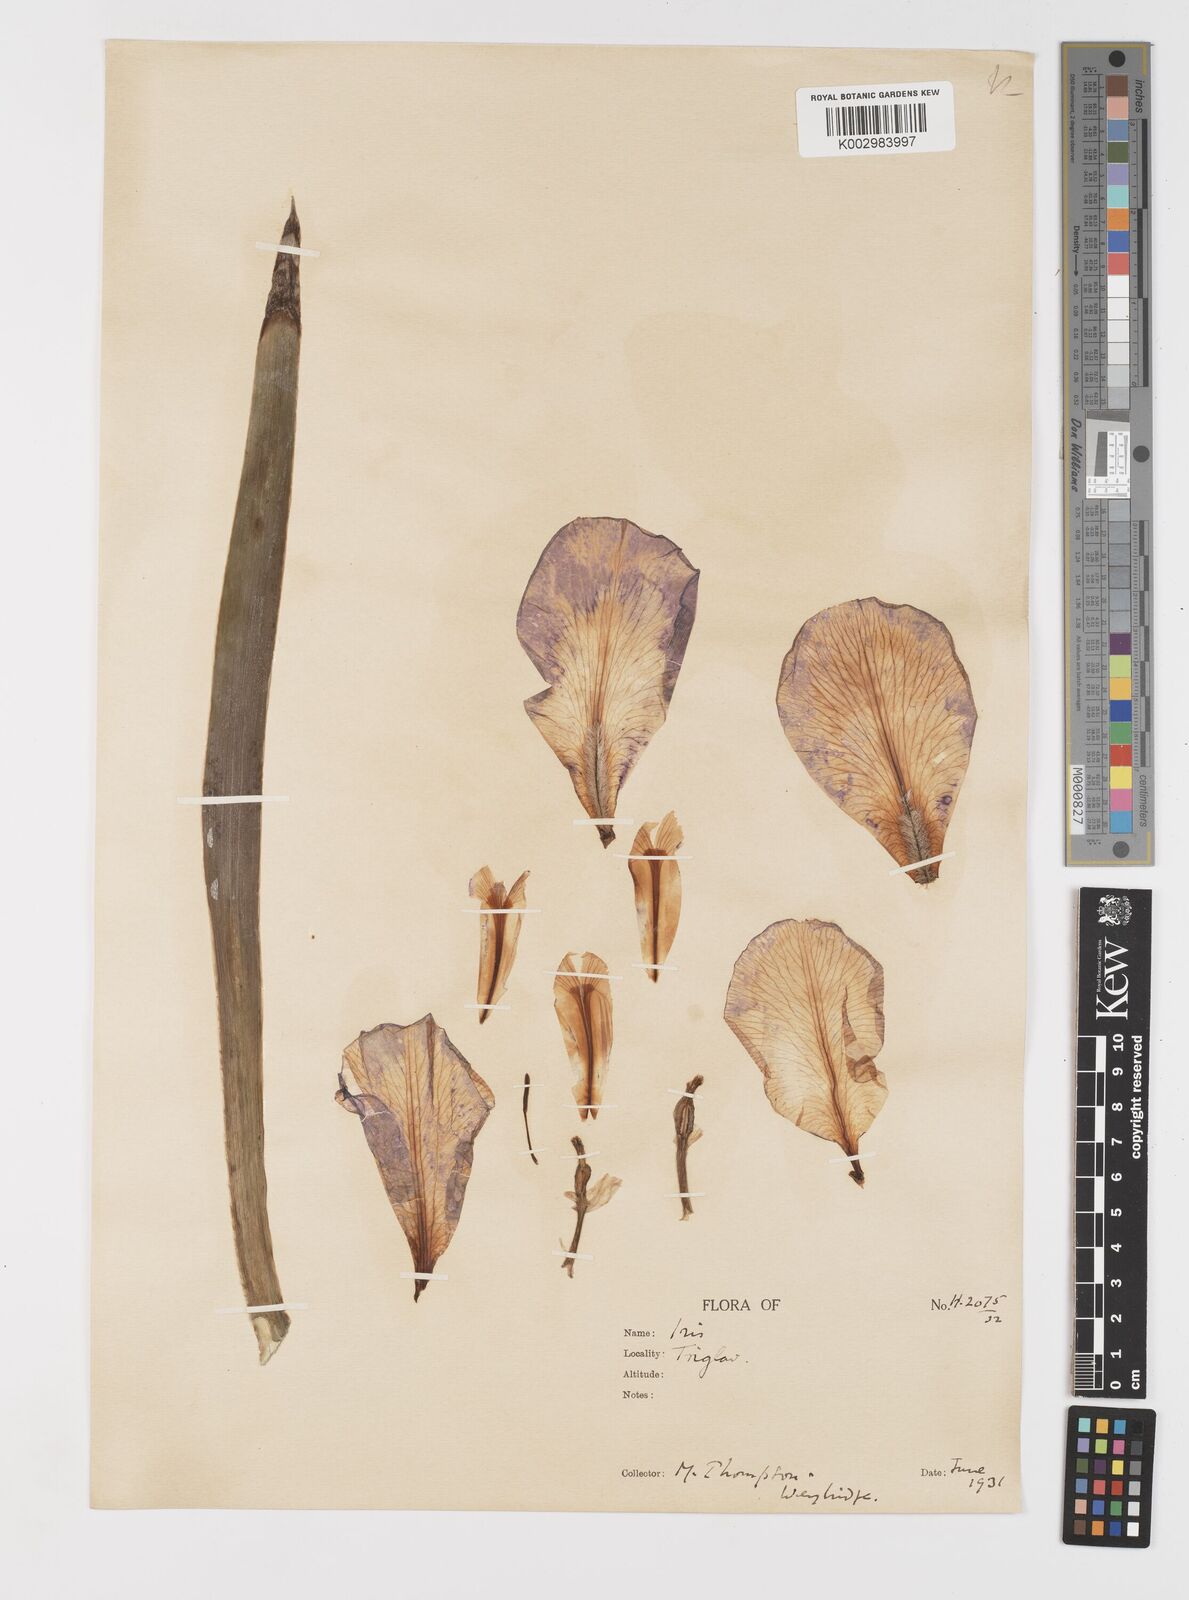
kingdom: Plantae
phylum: Tracheophyta
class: Liliopsida
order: Asparagales
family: Iridaceae
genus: Iris
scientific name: Iris halophila
